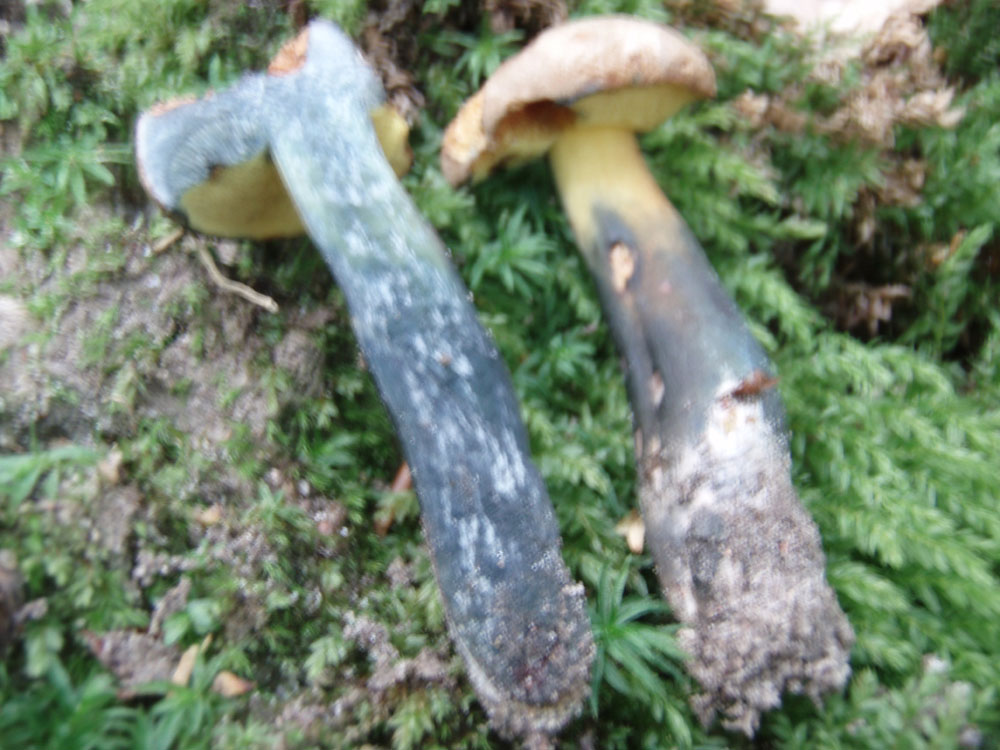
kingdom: Fungi
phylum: Basidiomycota
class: Agaricomycetes
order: Boletales
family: Boletaceae
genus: Cyanoboletus
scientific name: Cyanoboletus pulverulentus
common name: sortblånende rørhat
